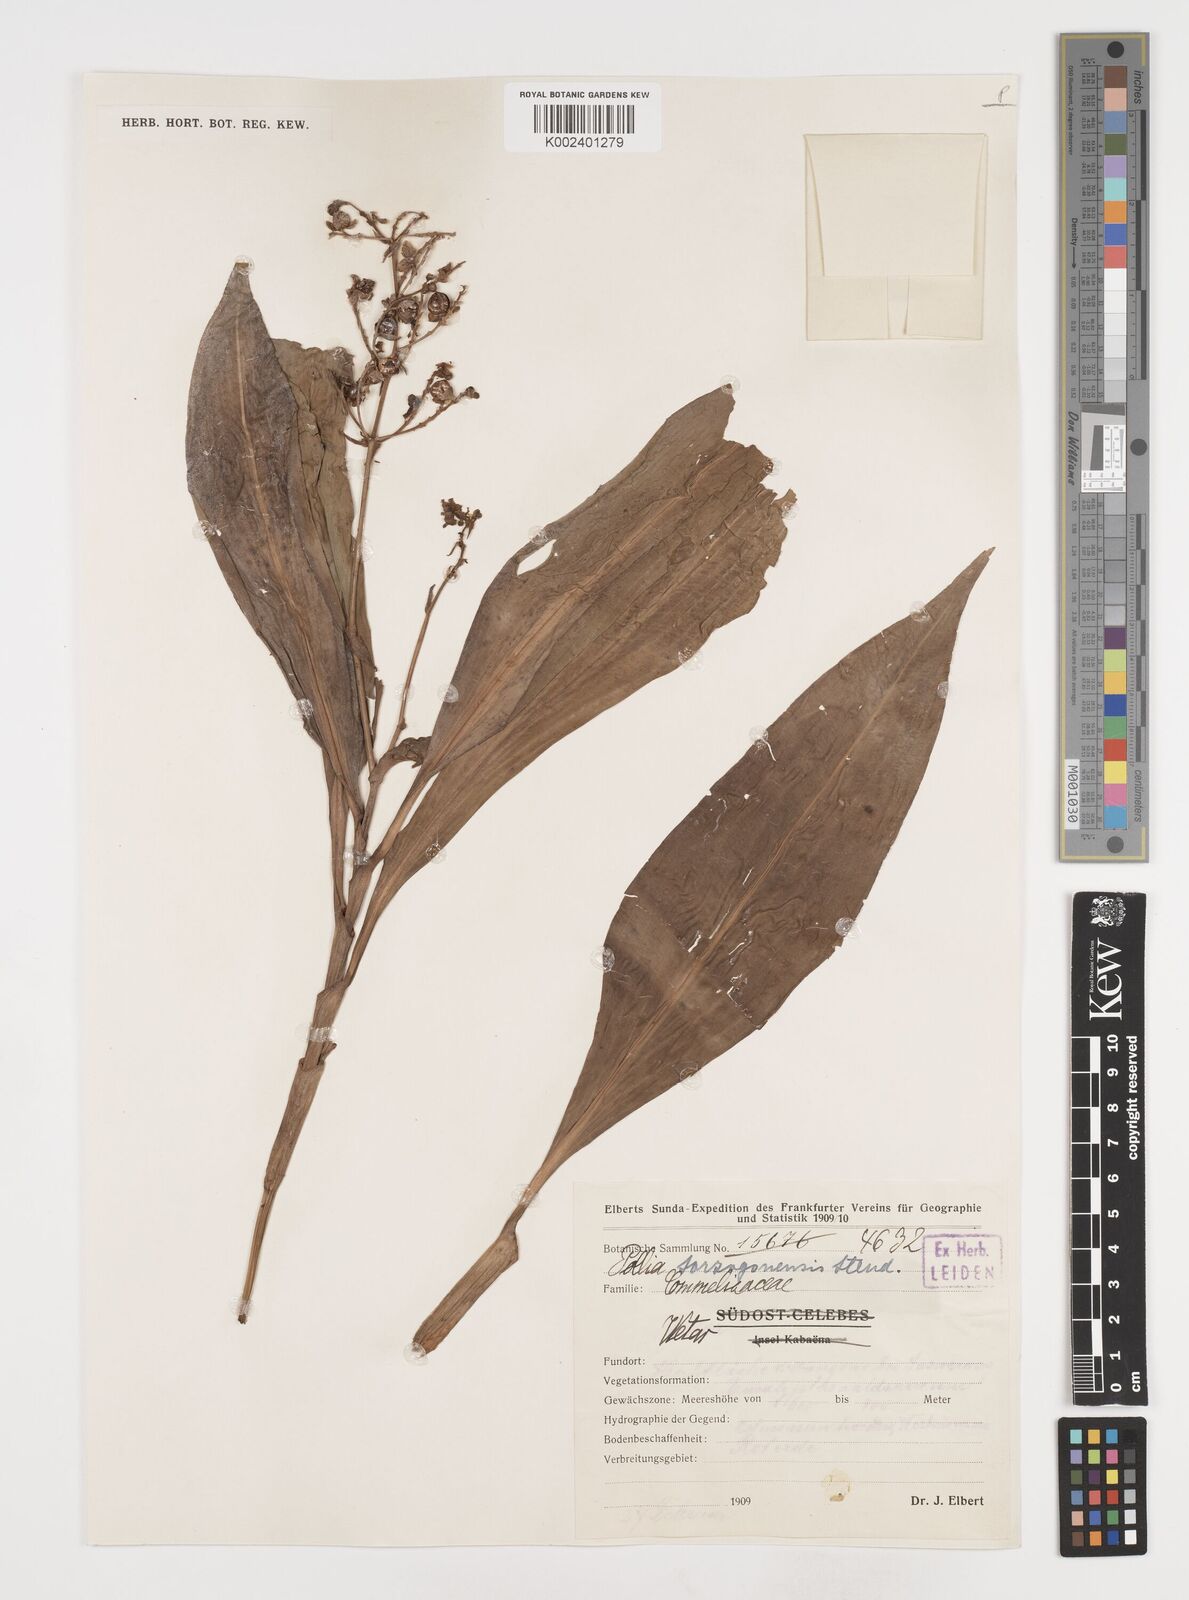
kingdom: Plantae
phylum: Tracheophyta
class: Liliopsida
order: Commelinales
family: Commelinaceae
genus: Pollia
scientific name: Pollia secundiflora
